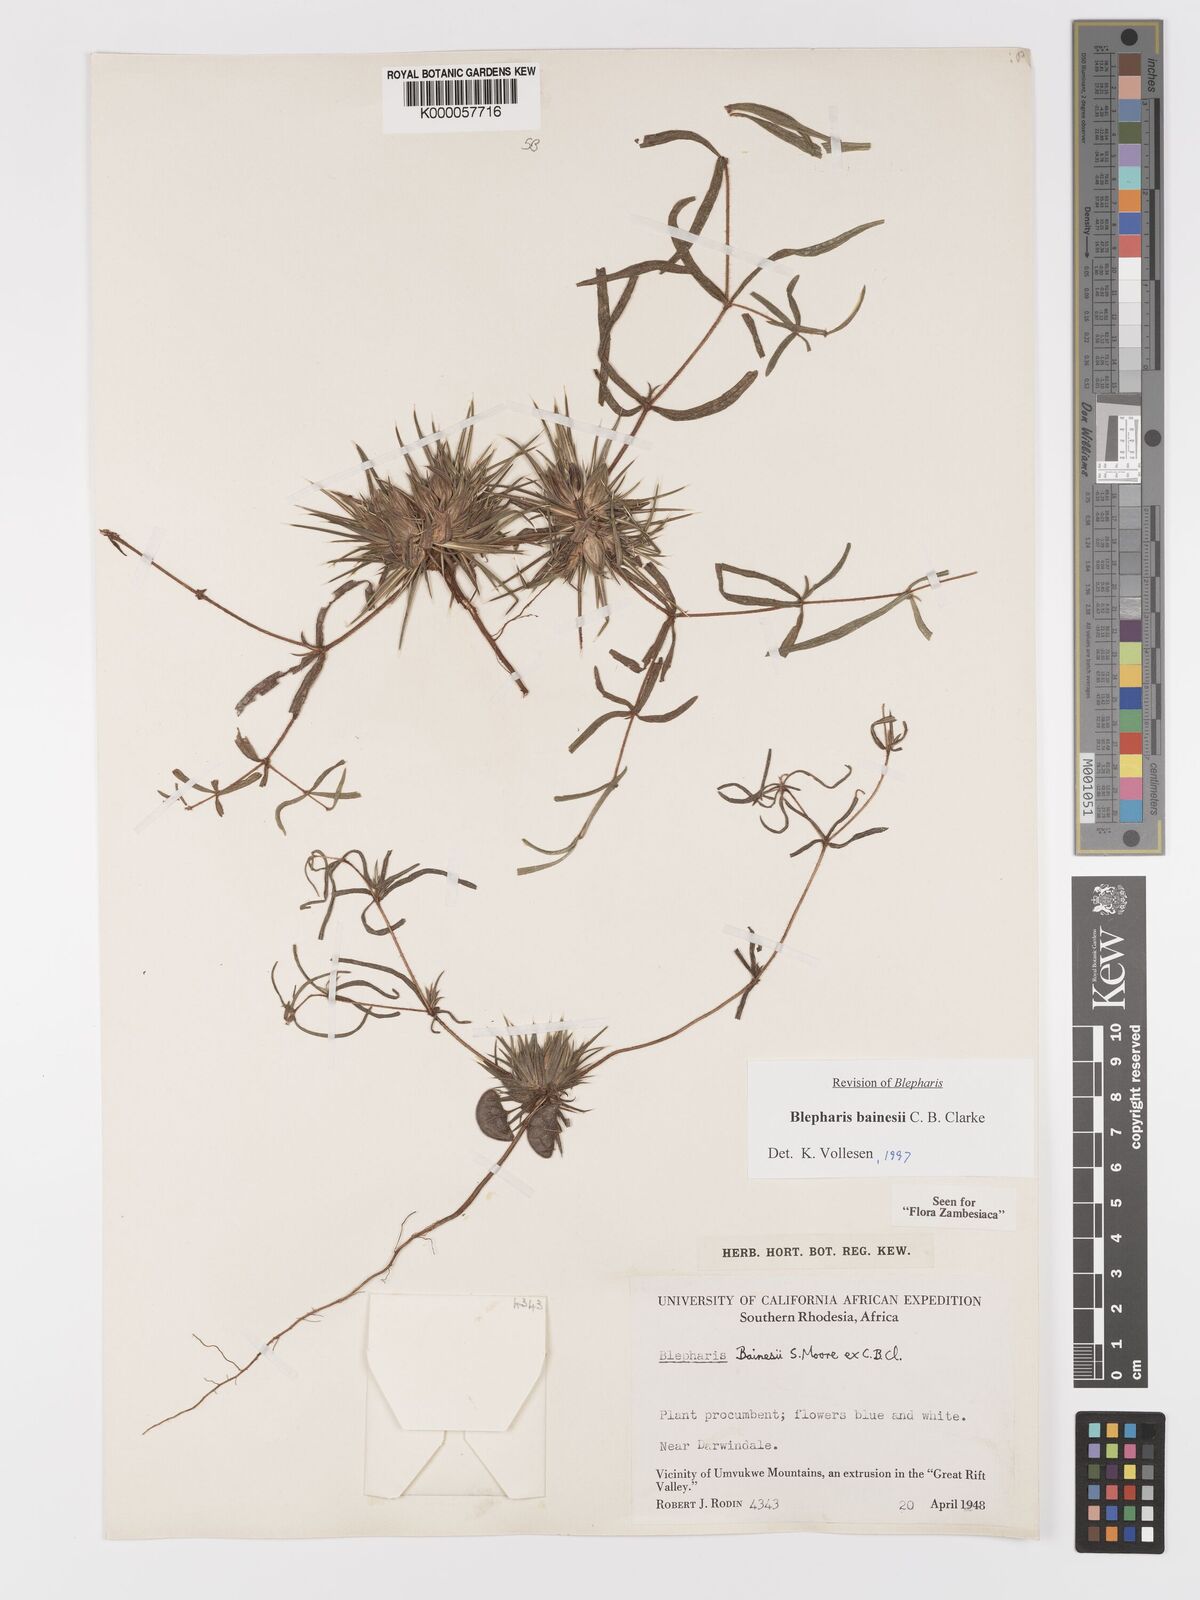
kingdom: Plantae
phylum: Tracheophyta
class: Magnoliopsida
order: Lamiales
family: Acanthaceae
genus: Blepharis
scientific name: Blepharis bainesii
